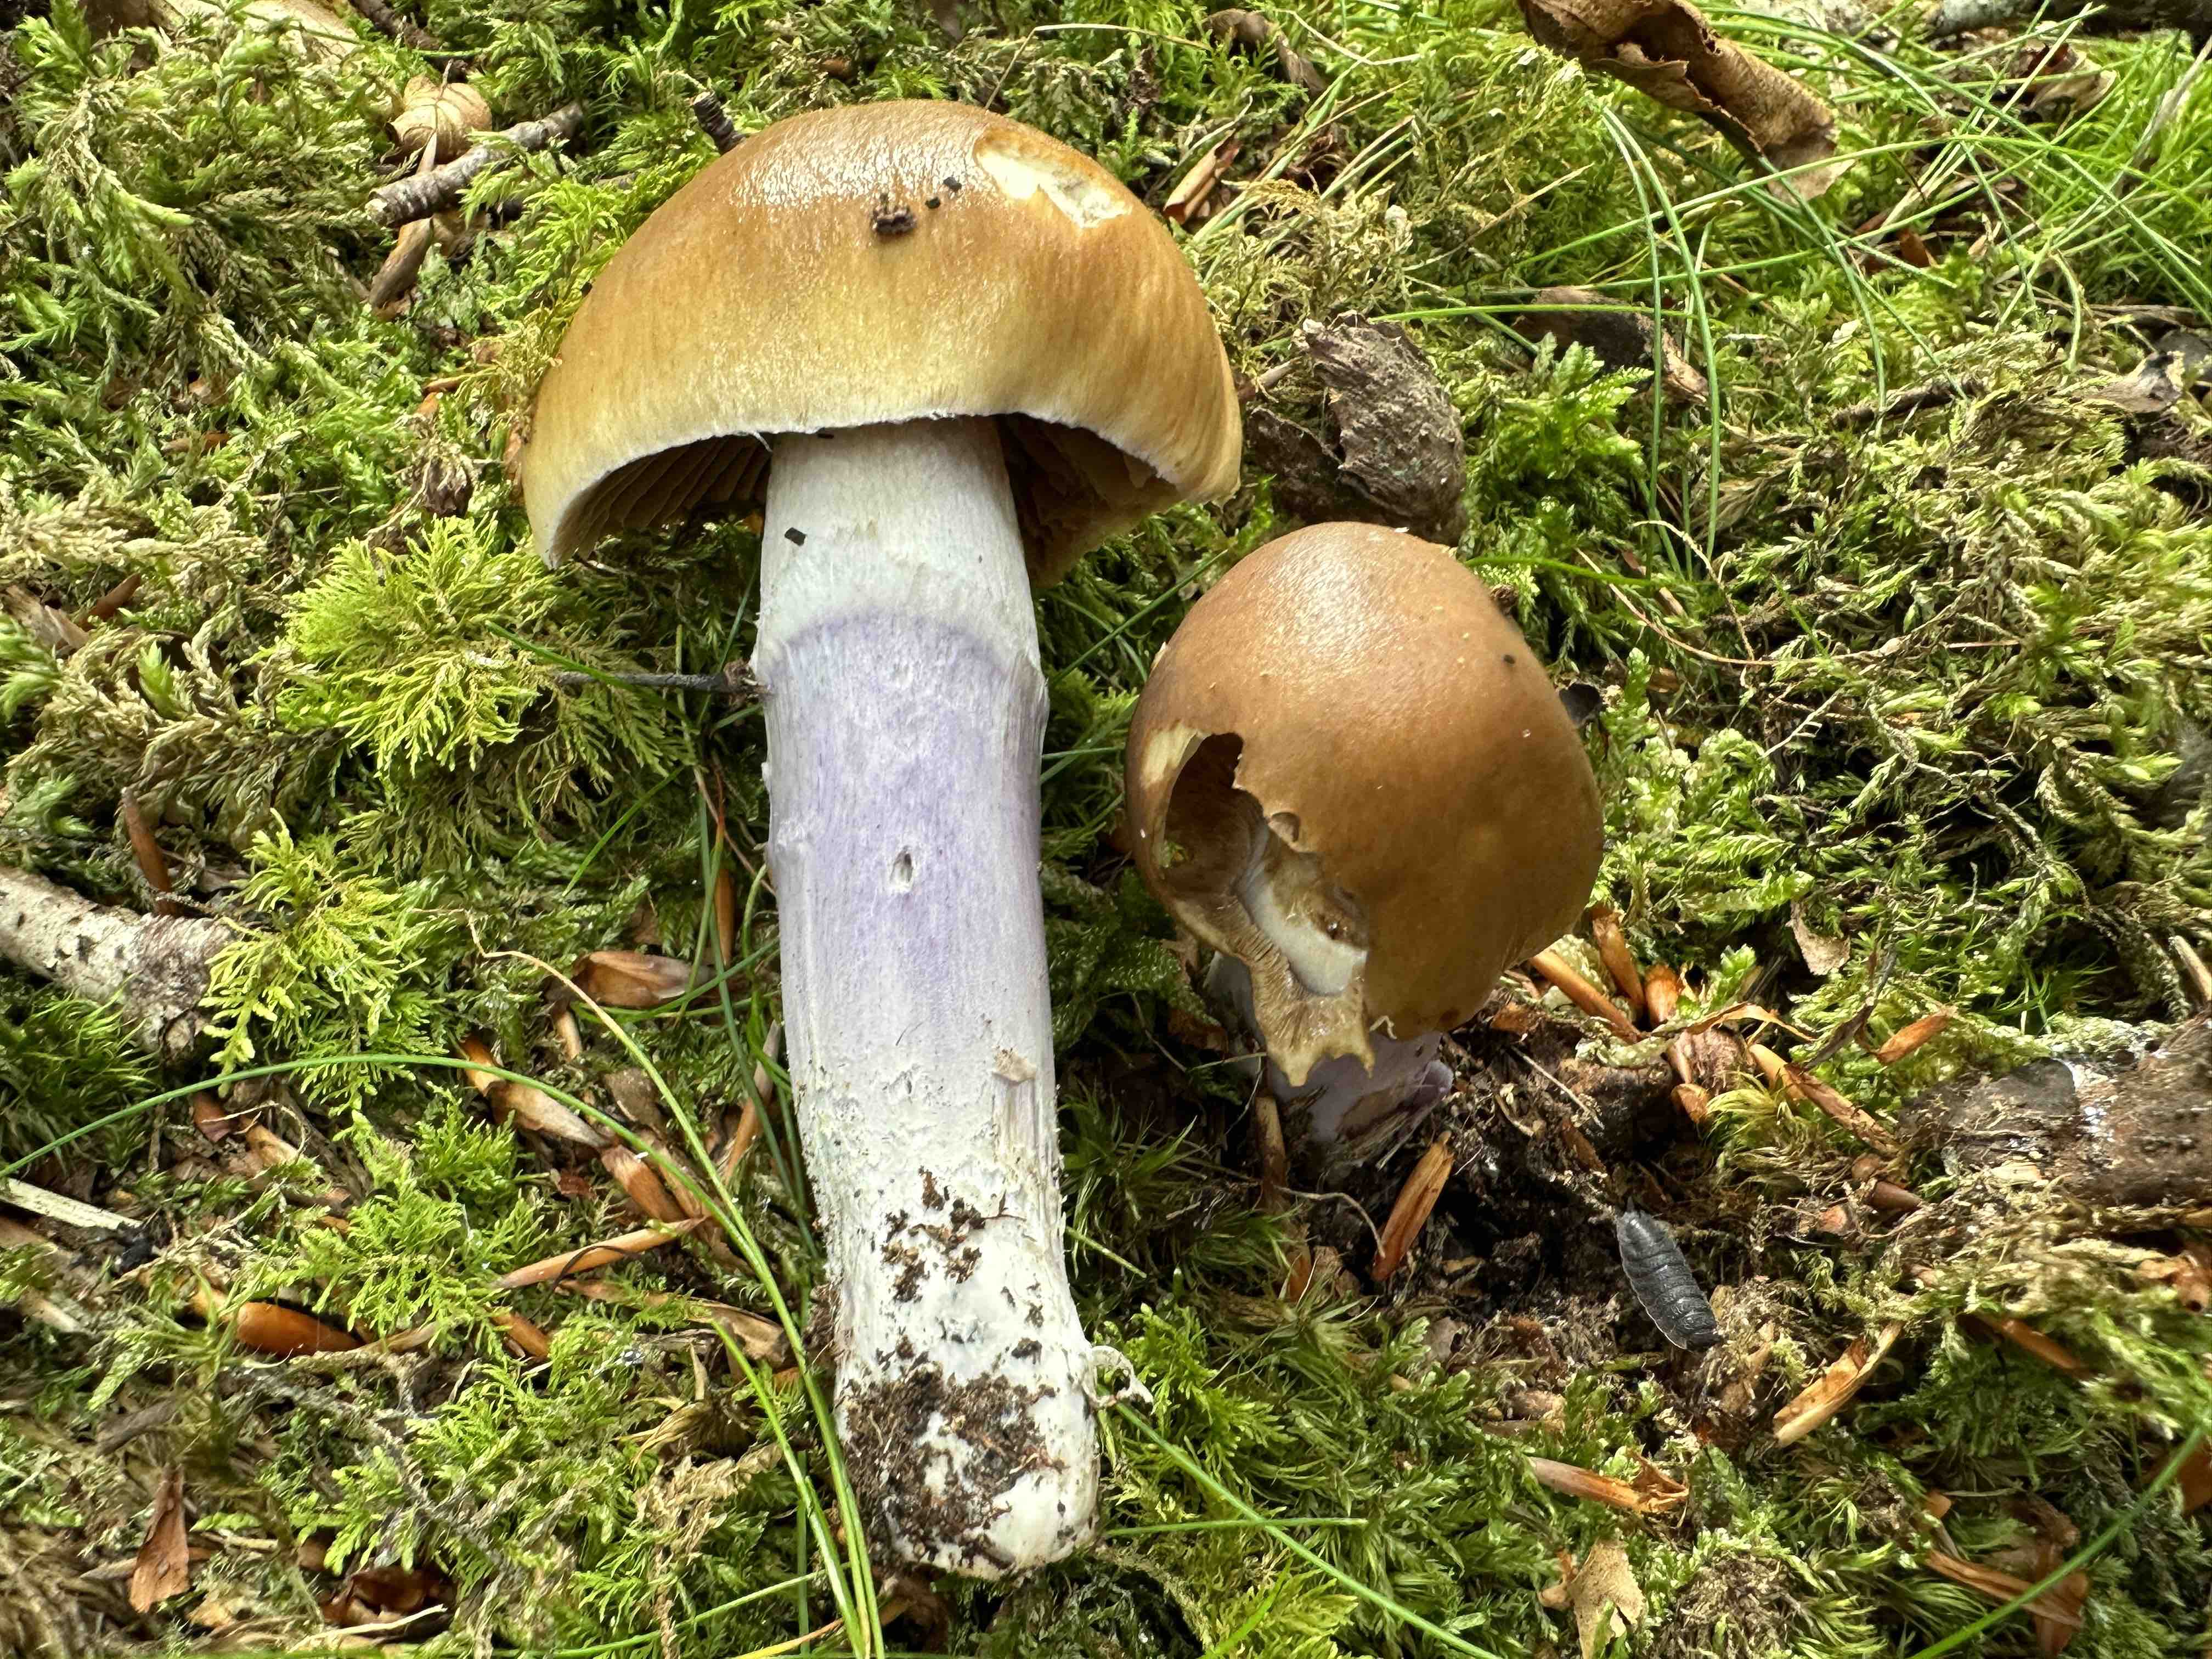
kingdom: Fungi
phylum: Basidiomycota
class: Agaricomycetes
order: Agaricales
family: Cortinariaceae
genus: Cortinarius
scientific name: Cortinarius stillatitius
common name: honningduftende slørhat
